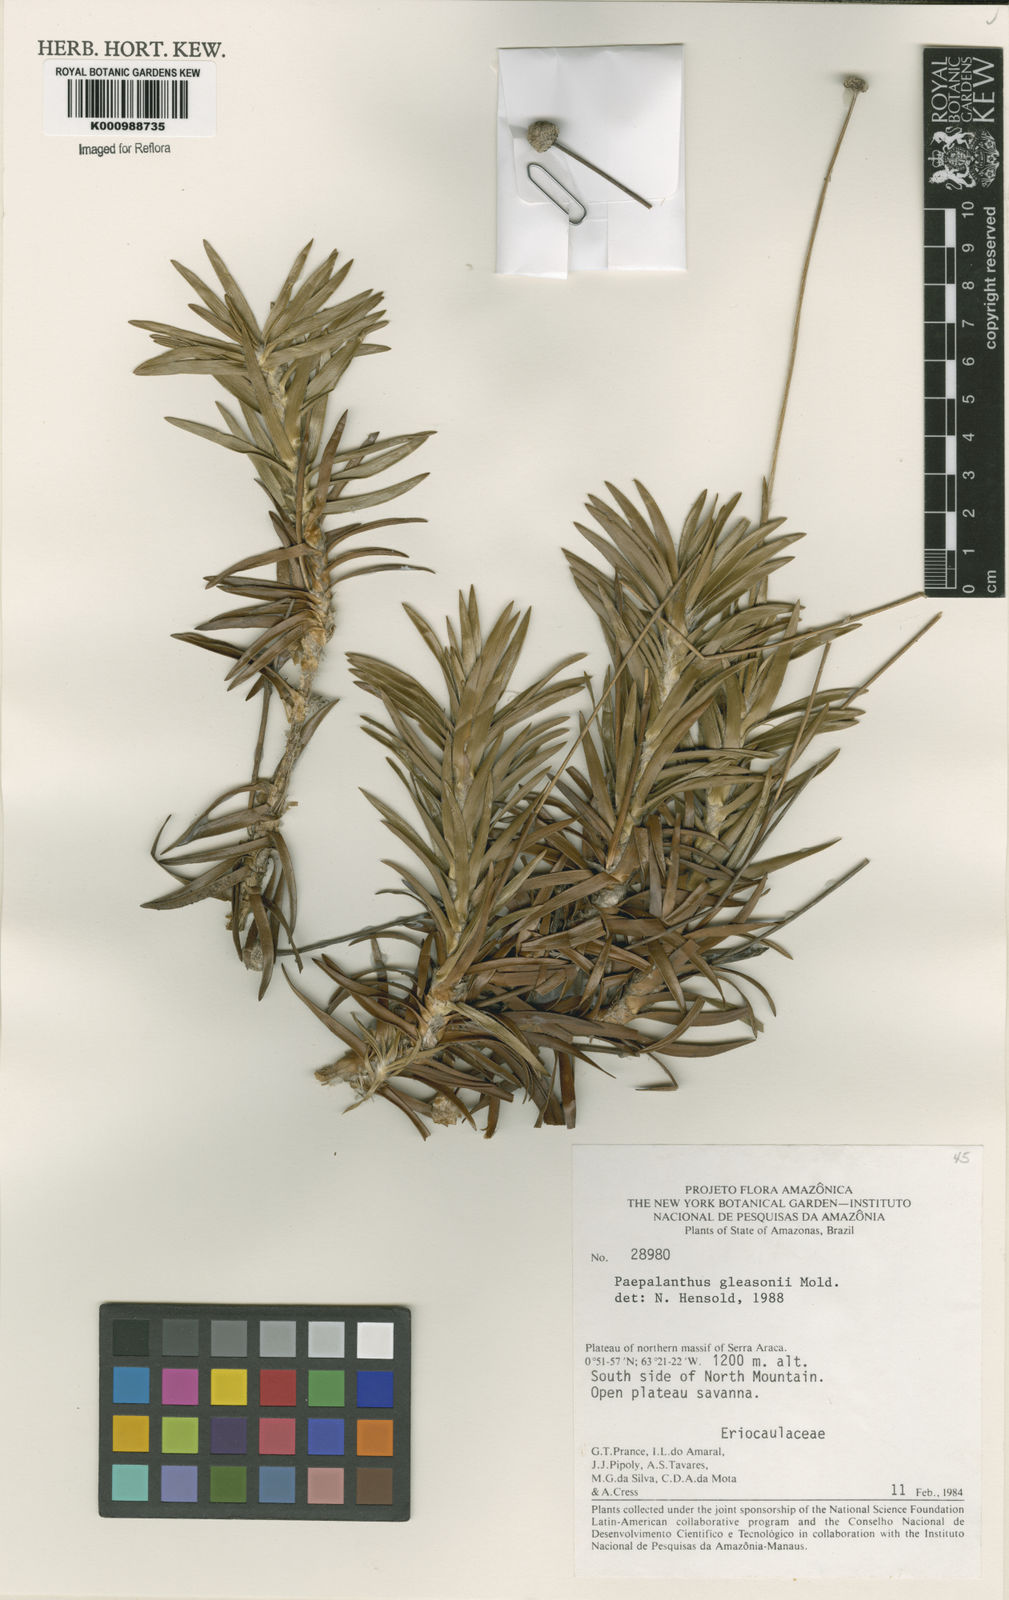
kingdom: Plantae
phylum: Tracheophyta
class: Liliopsida
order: Poales
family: Eriocaulaceae
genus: Paepalanthus
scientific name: Paepalanthus gleasonii
